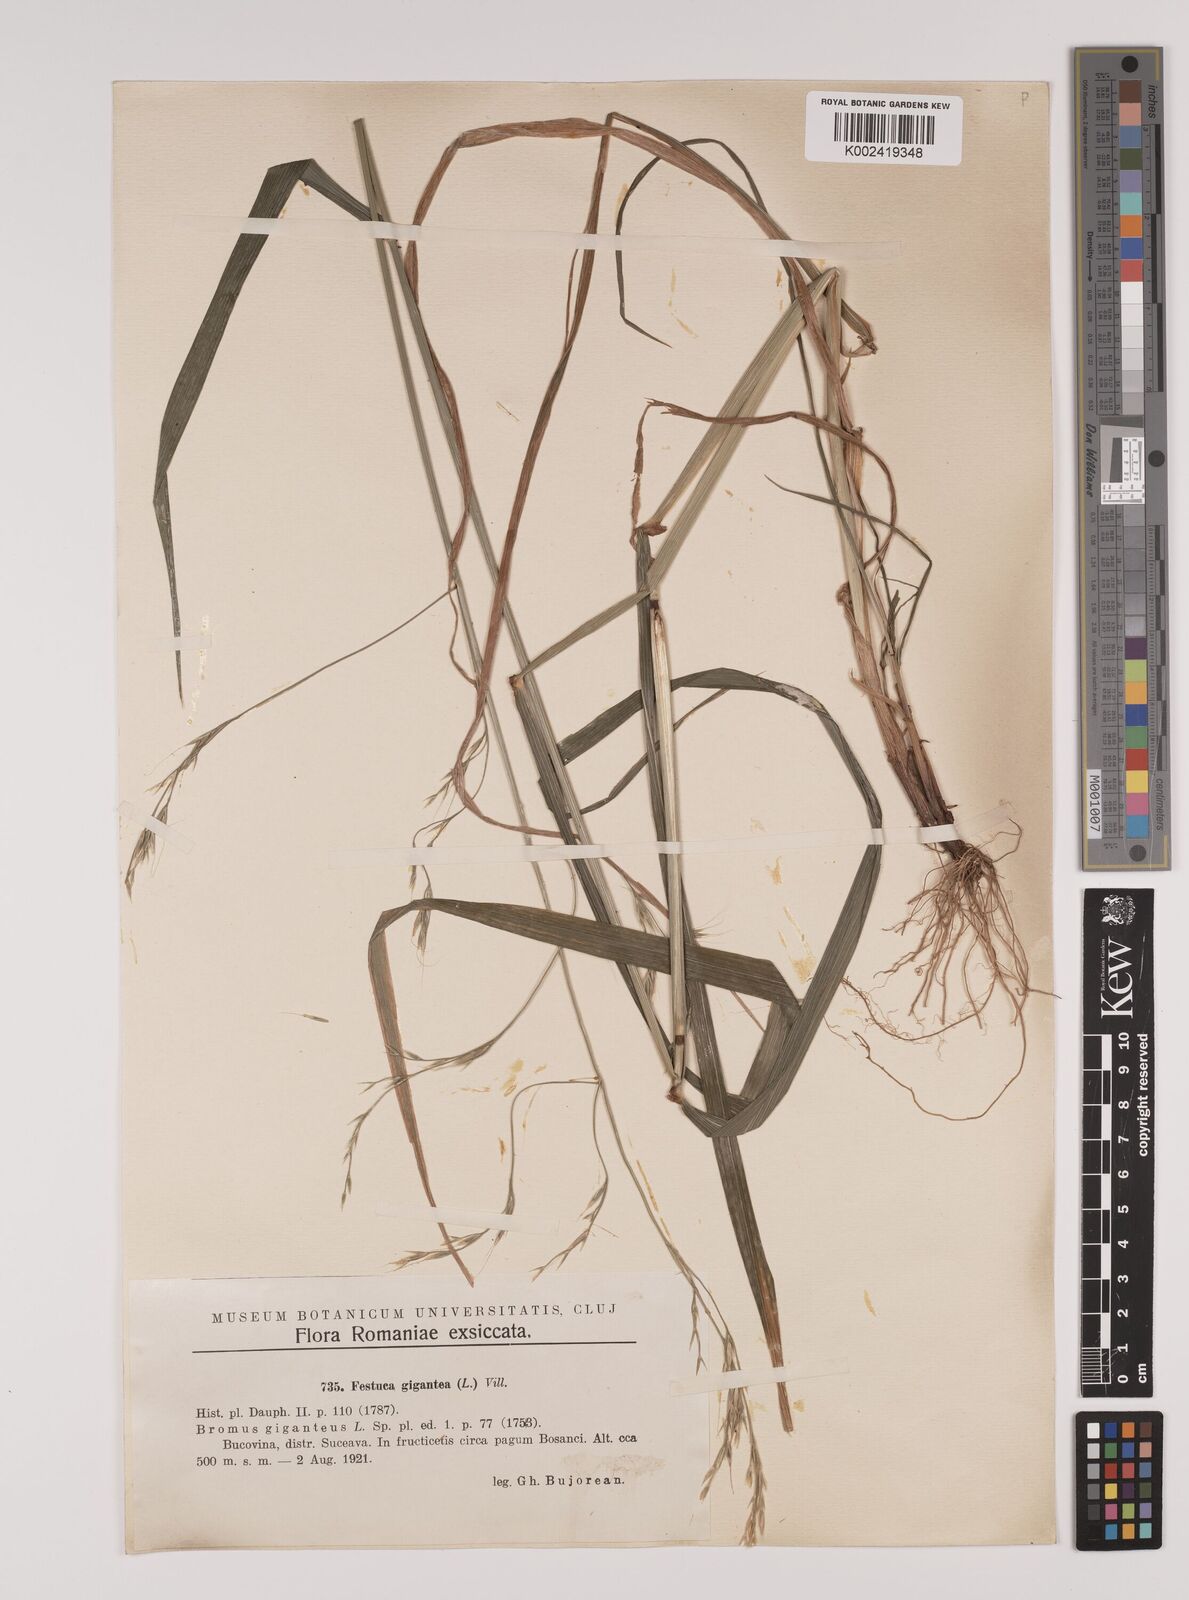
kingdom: Plantae
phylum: Tracheophyta
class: Liliopsida
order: Poales
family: Poaceae
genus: Lolium
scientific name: Lolium giganteum
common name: Giant fescue
